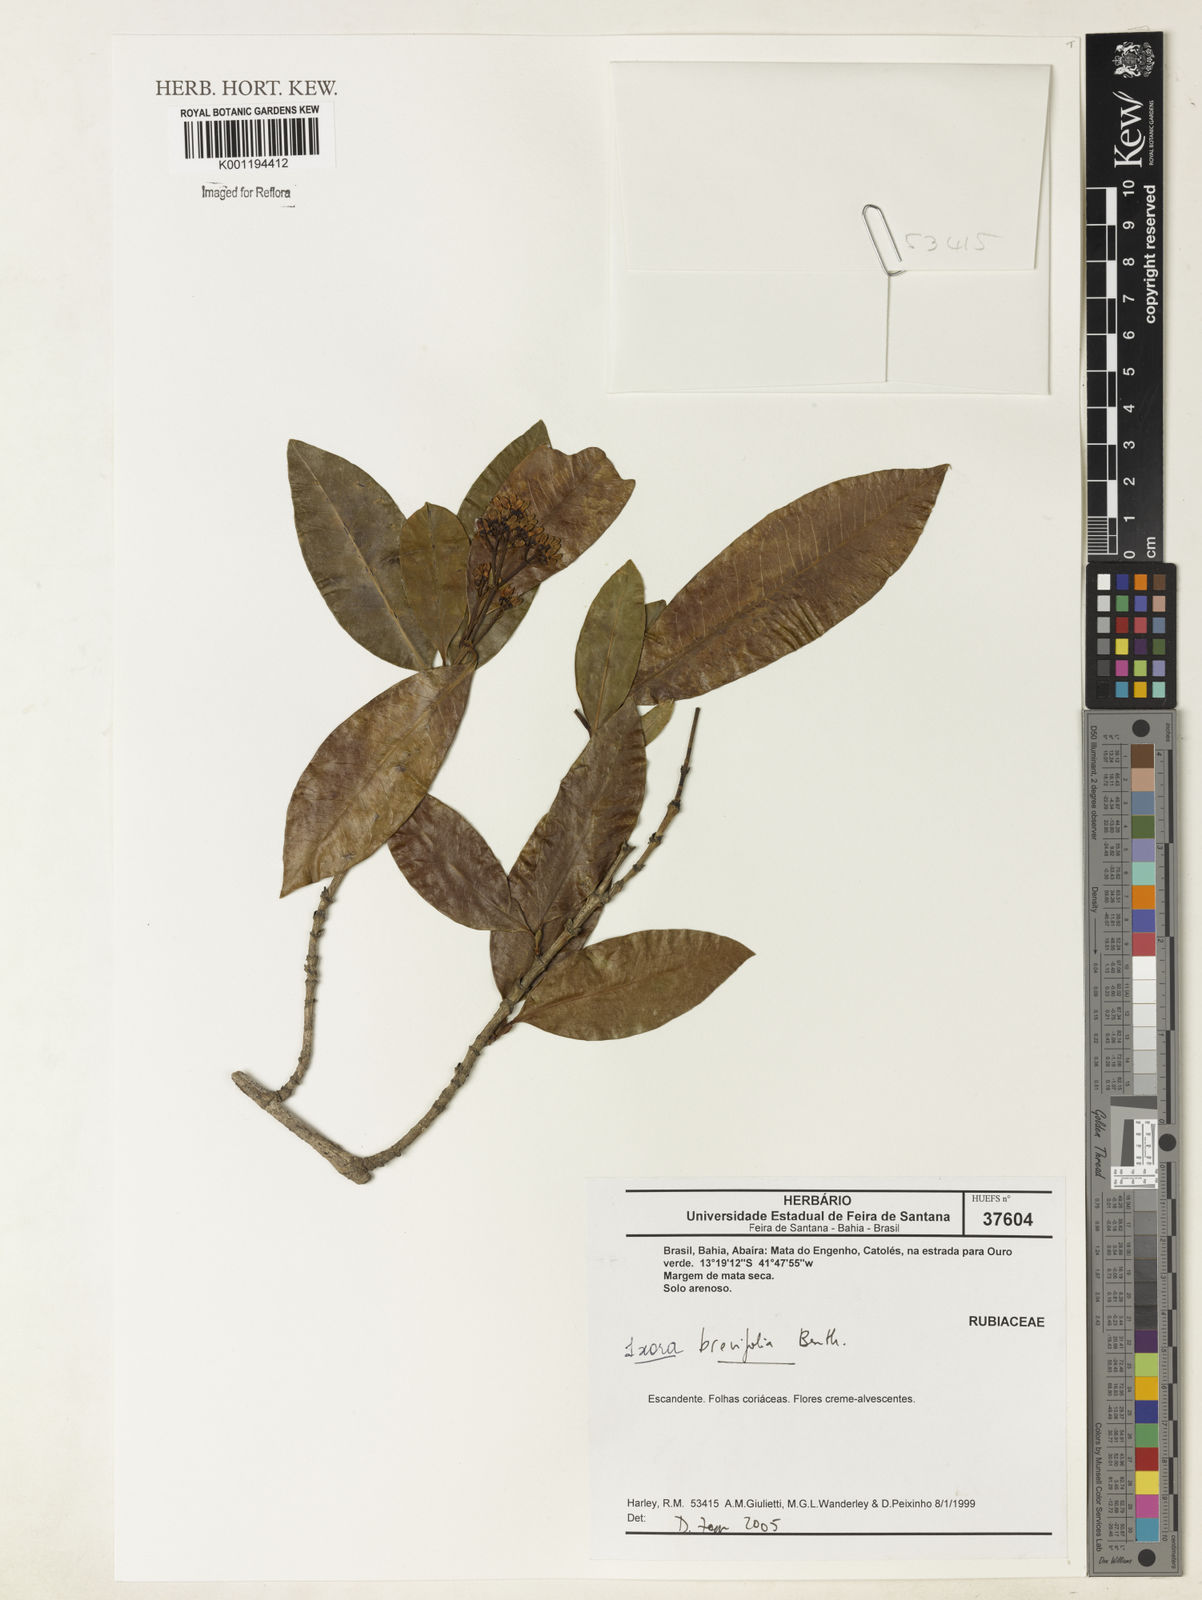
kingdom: Plantae
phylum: Tracheophyta
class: Magnoliopsida
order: Gentianales
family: Rubiaceae
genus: Ixora
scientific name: Ixora brevifolia
